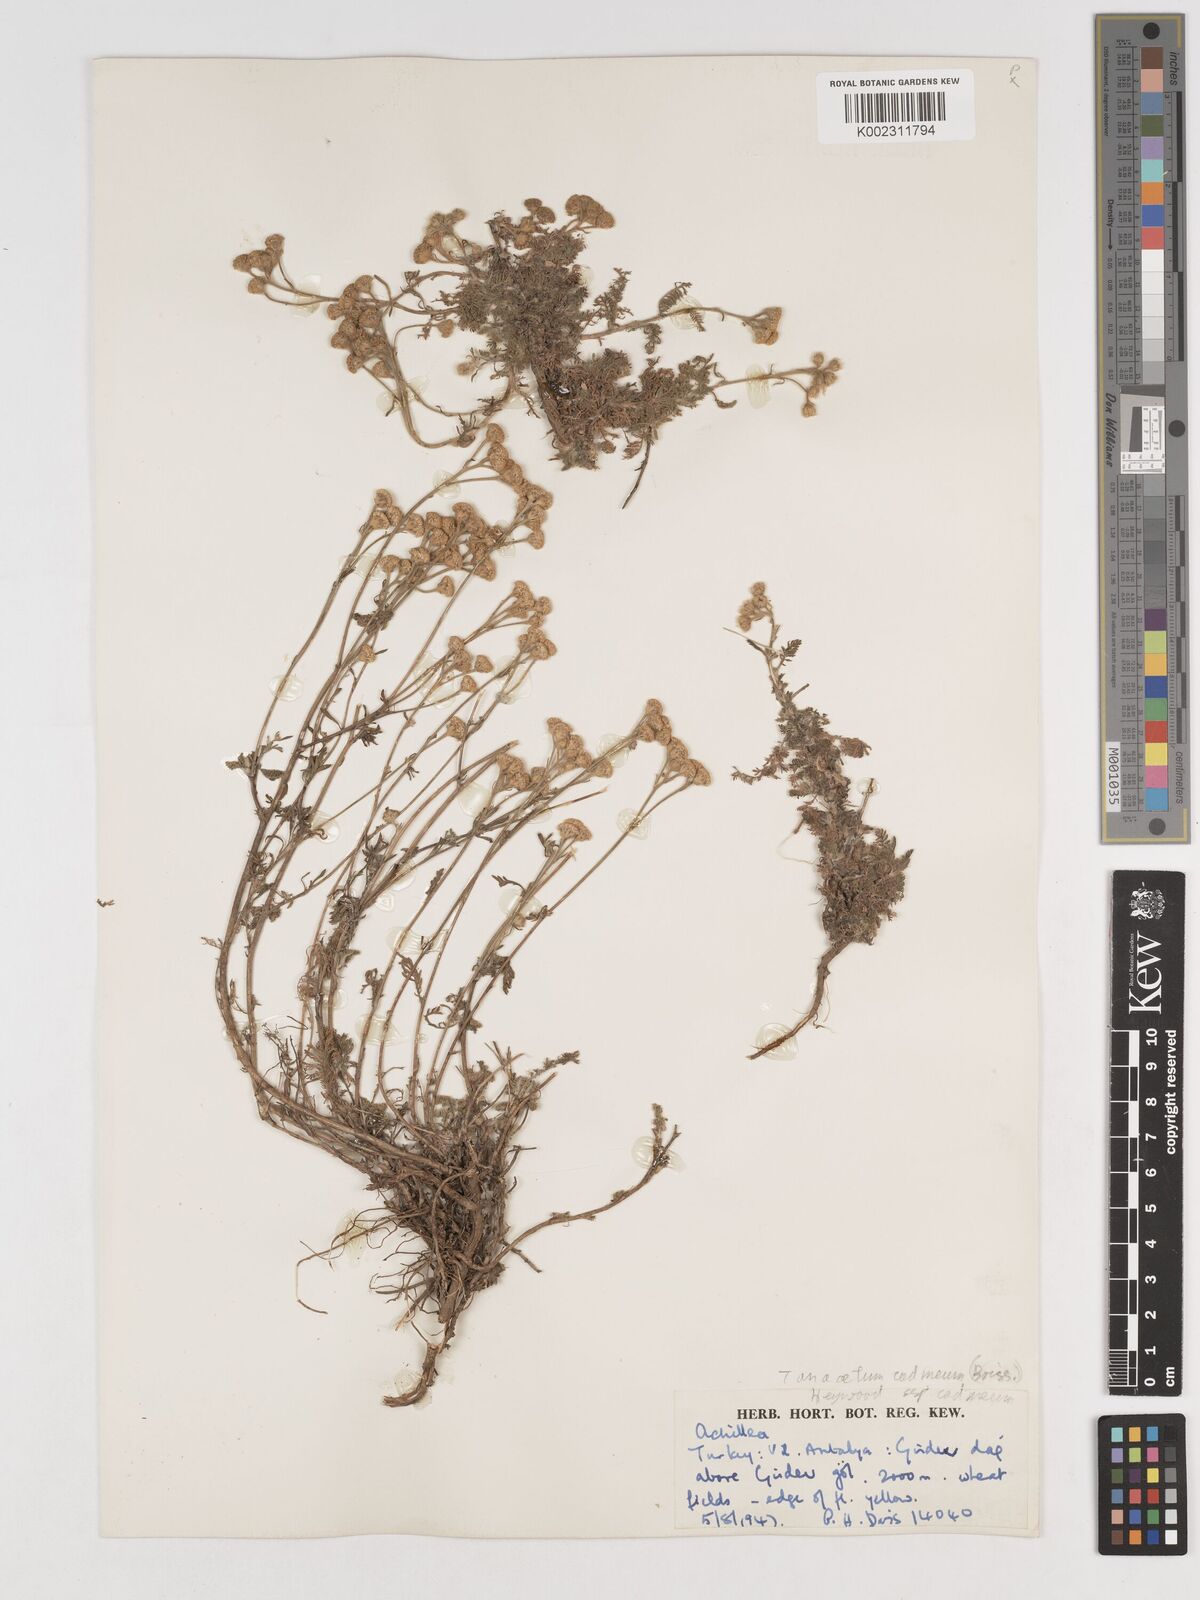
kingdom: Plantae
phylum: Tracheophyta
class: Magnoliopsida
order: Asterales
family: Asteraceae
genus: Tanacetum
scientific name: Tanacetum cadmeum
